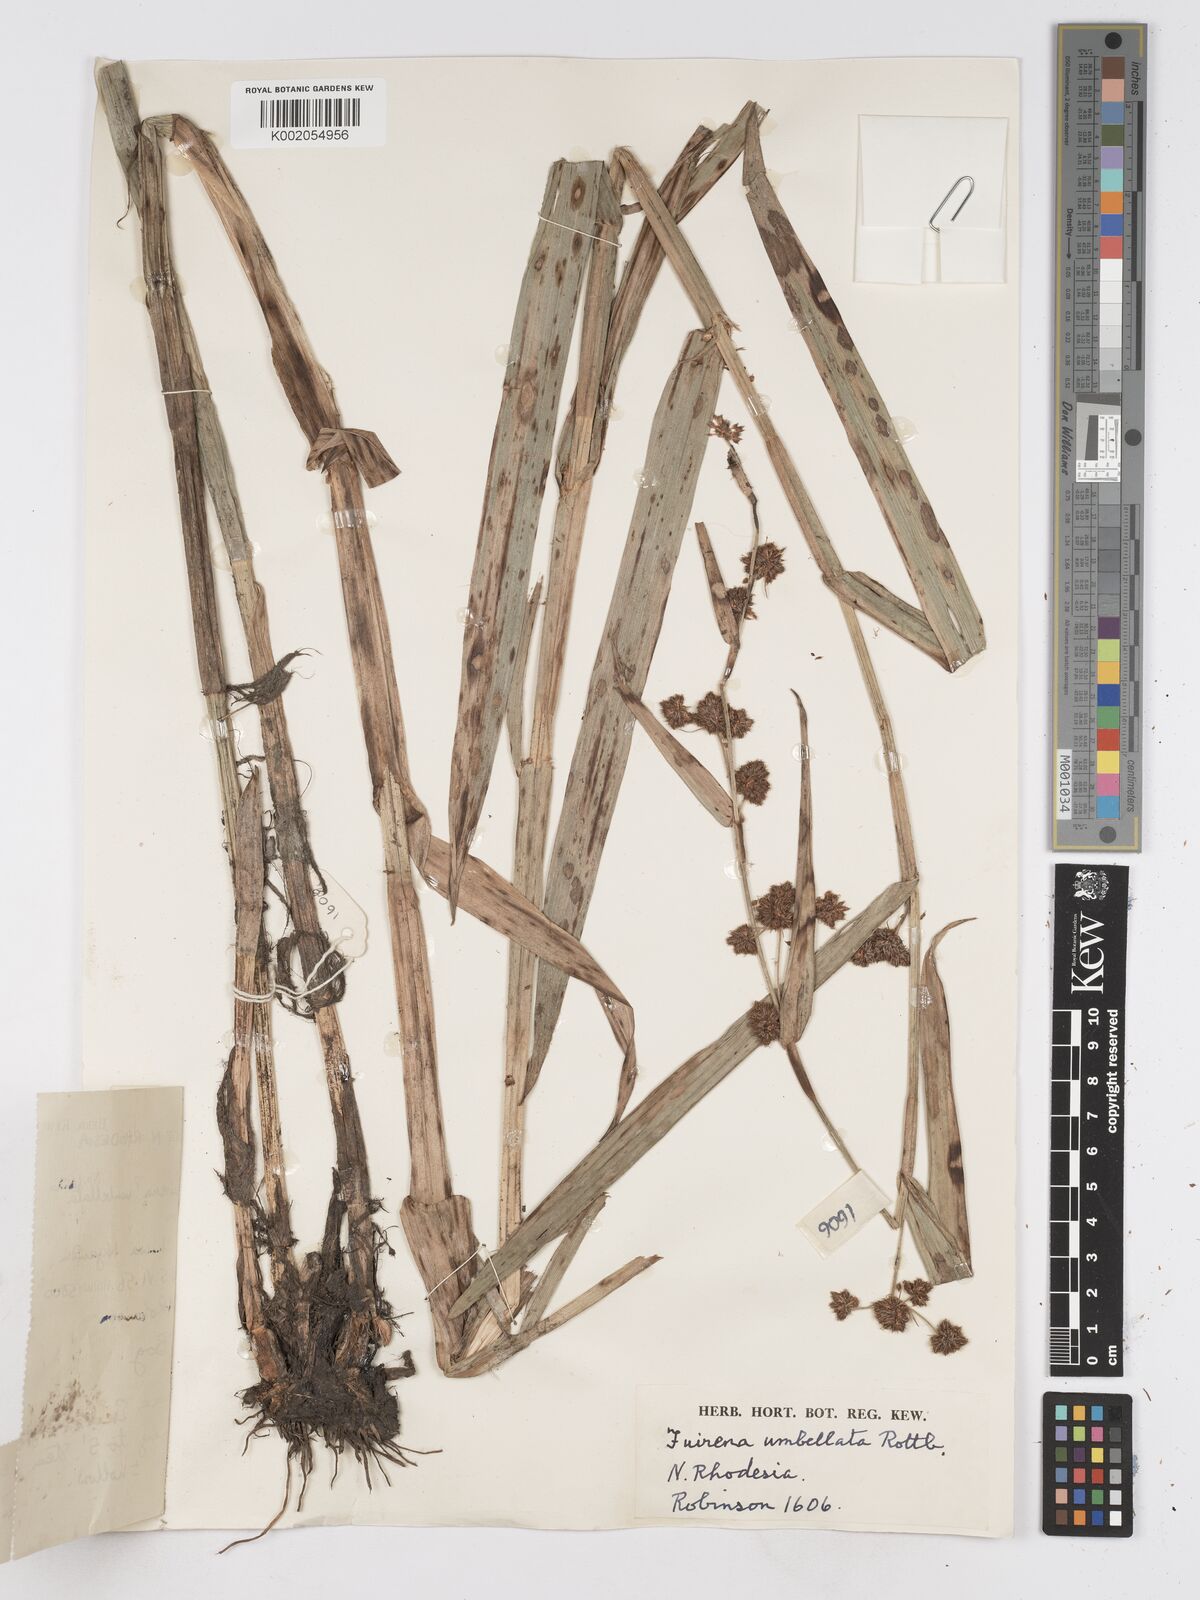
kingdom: Plantae
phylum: Tracheophyta
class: Liliopsida
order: Poales
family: Cyperaceae
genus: Fuirena
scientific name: Fuirena umbellata
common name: Yefen
